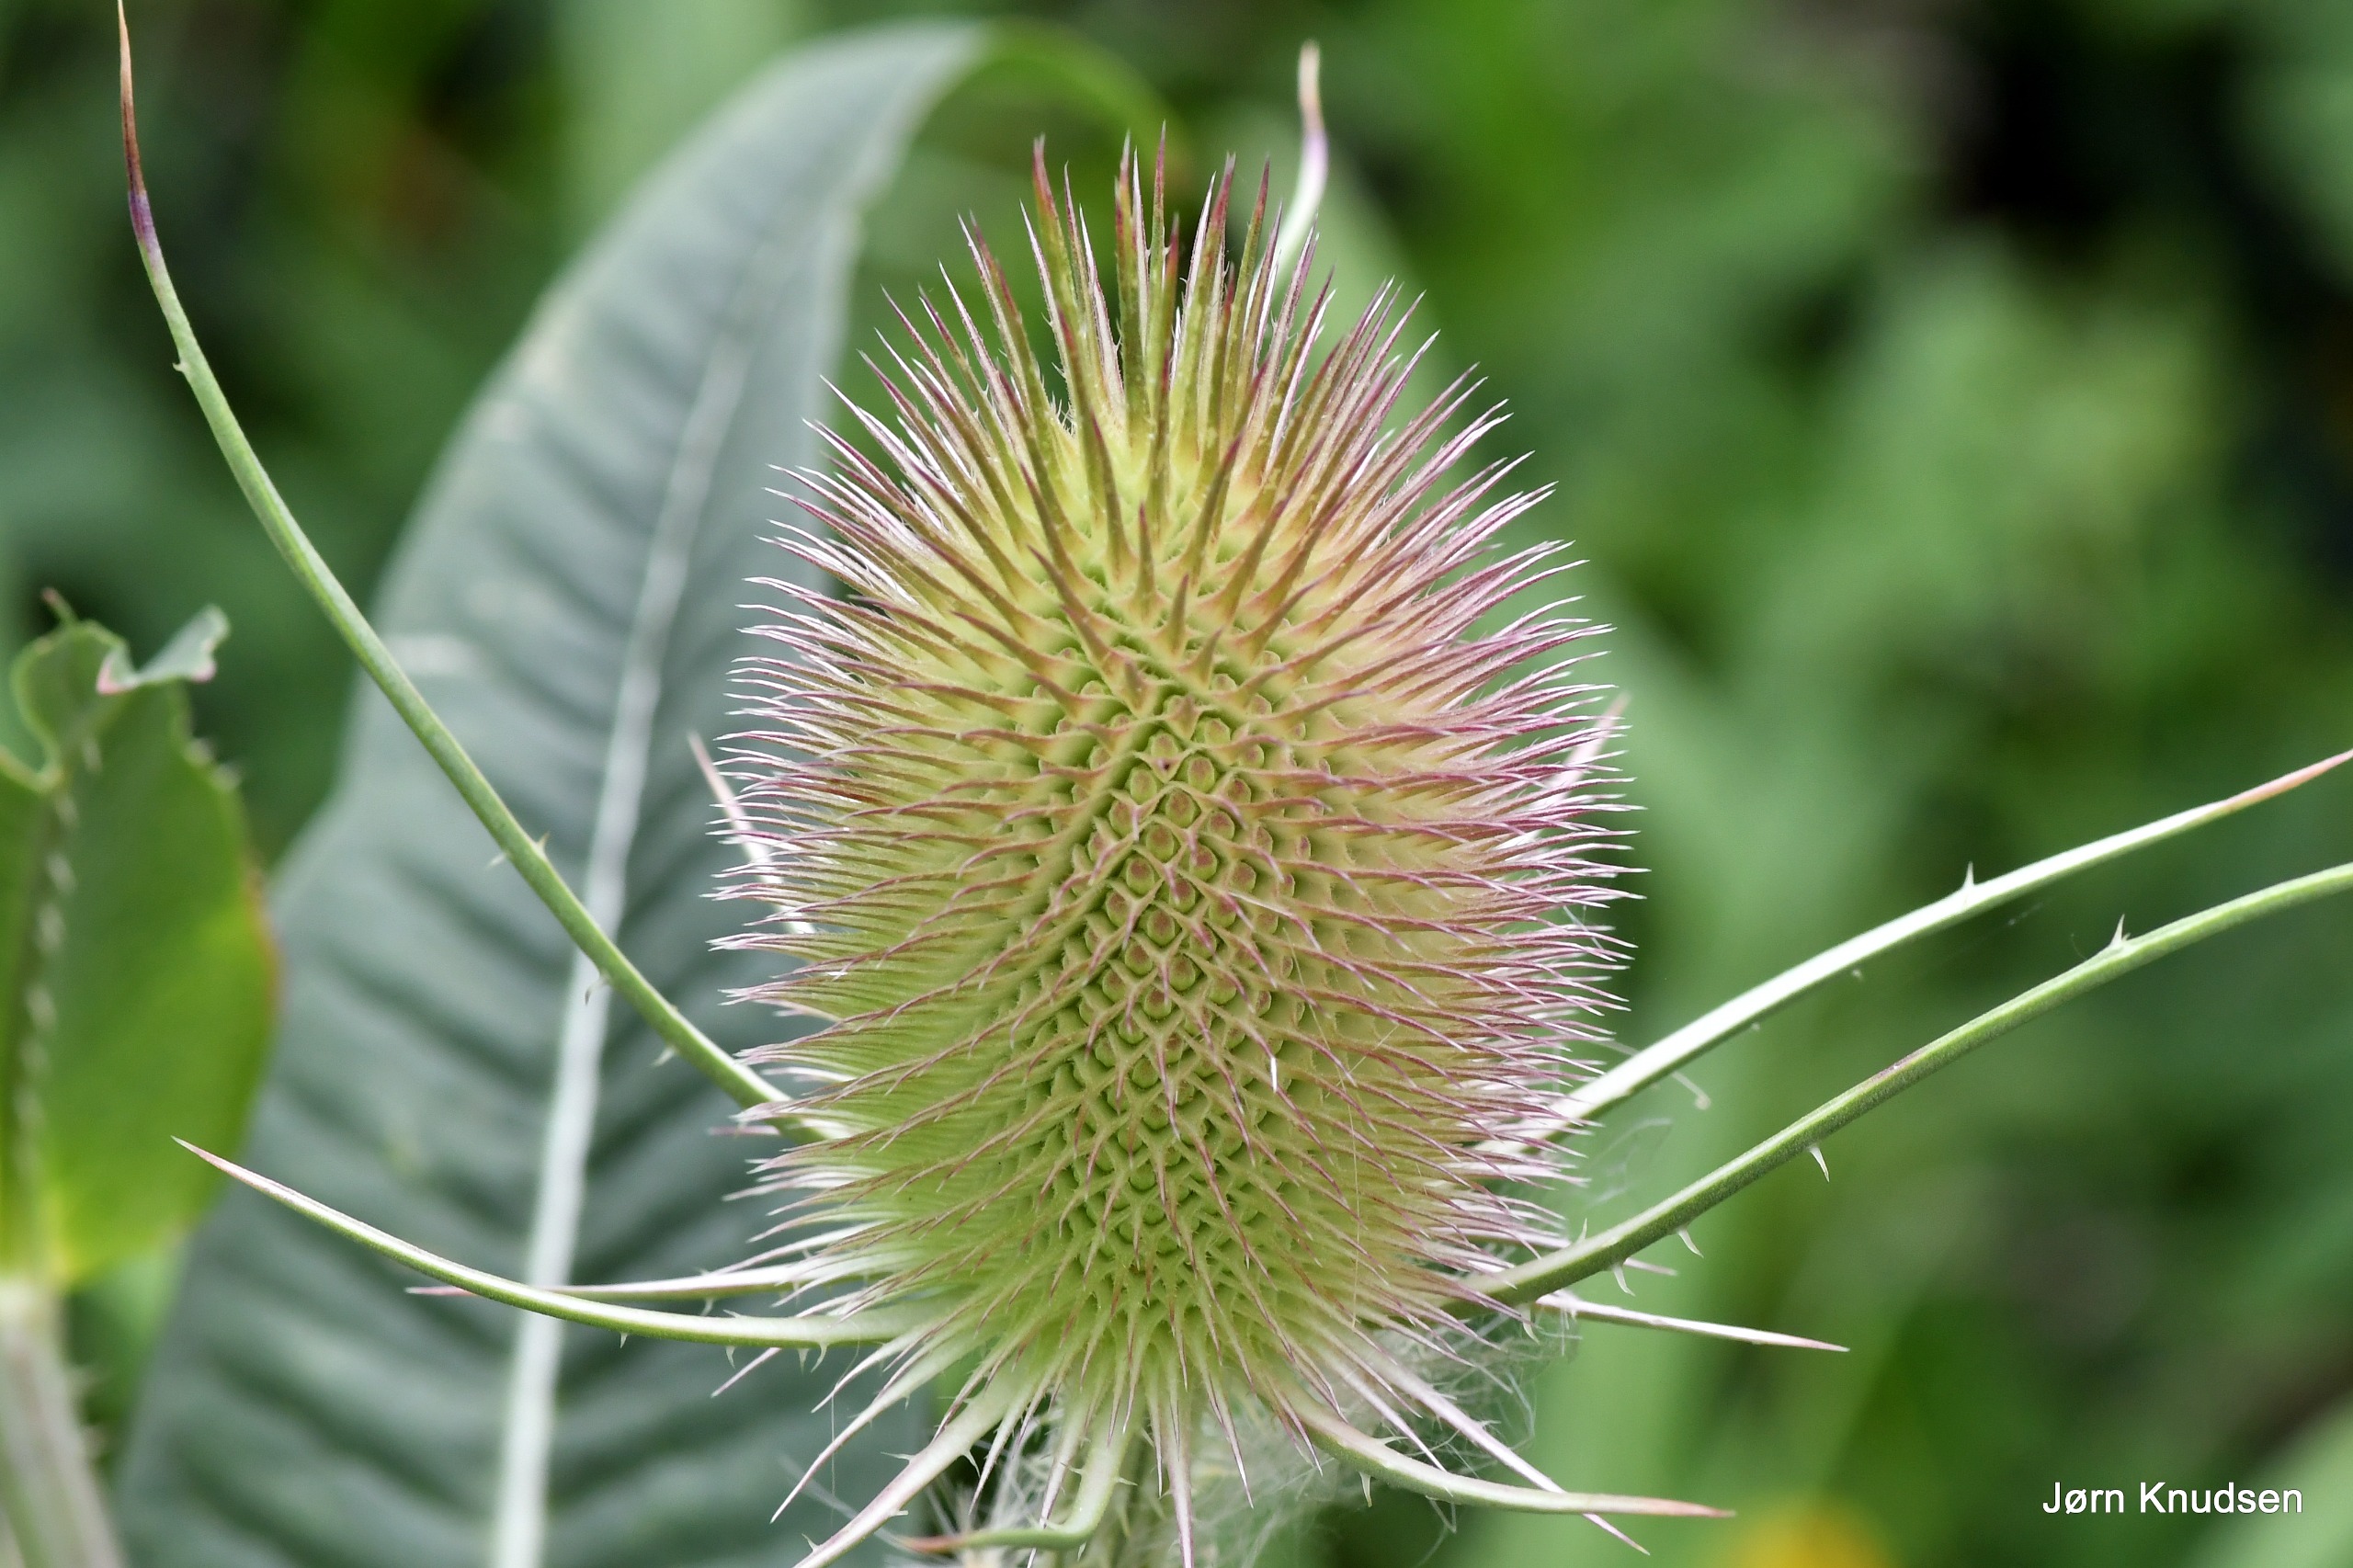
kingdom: Plantae
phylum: Tracheophyta
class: Magnoliopsida
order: Dipsacales
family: Caprifoliaceae
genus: Dipsacus
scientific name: Dipsacus fullonum
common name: Gærde-kartebolle
